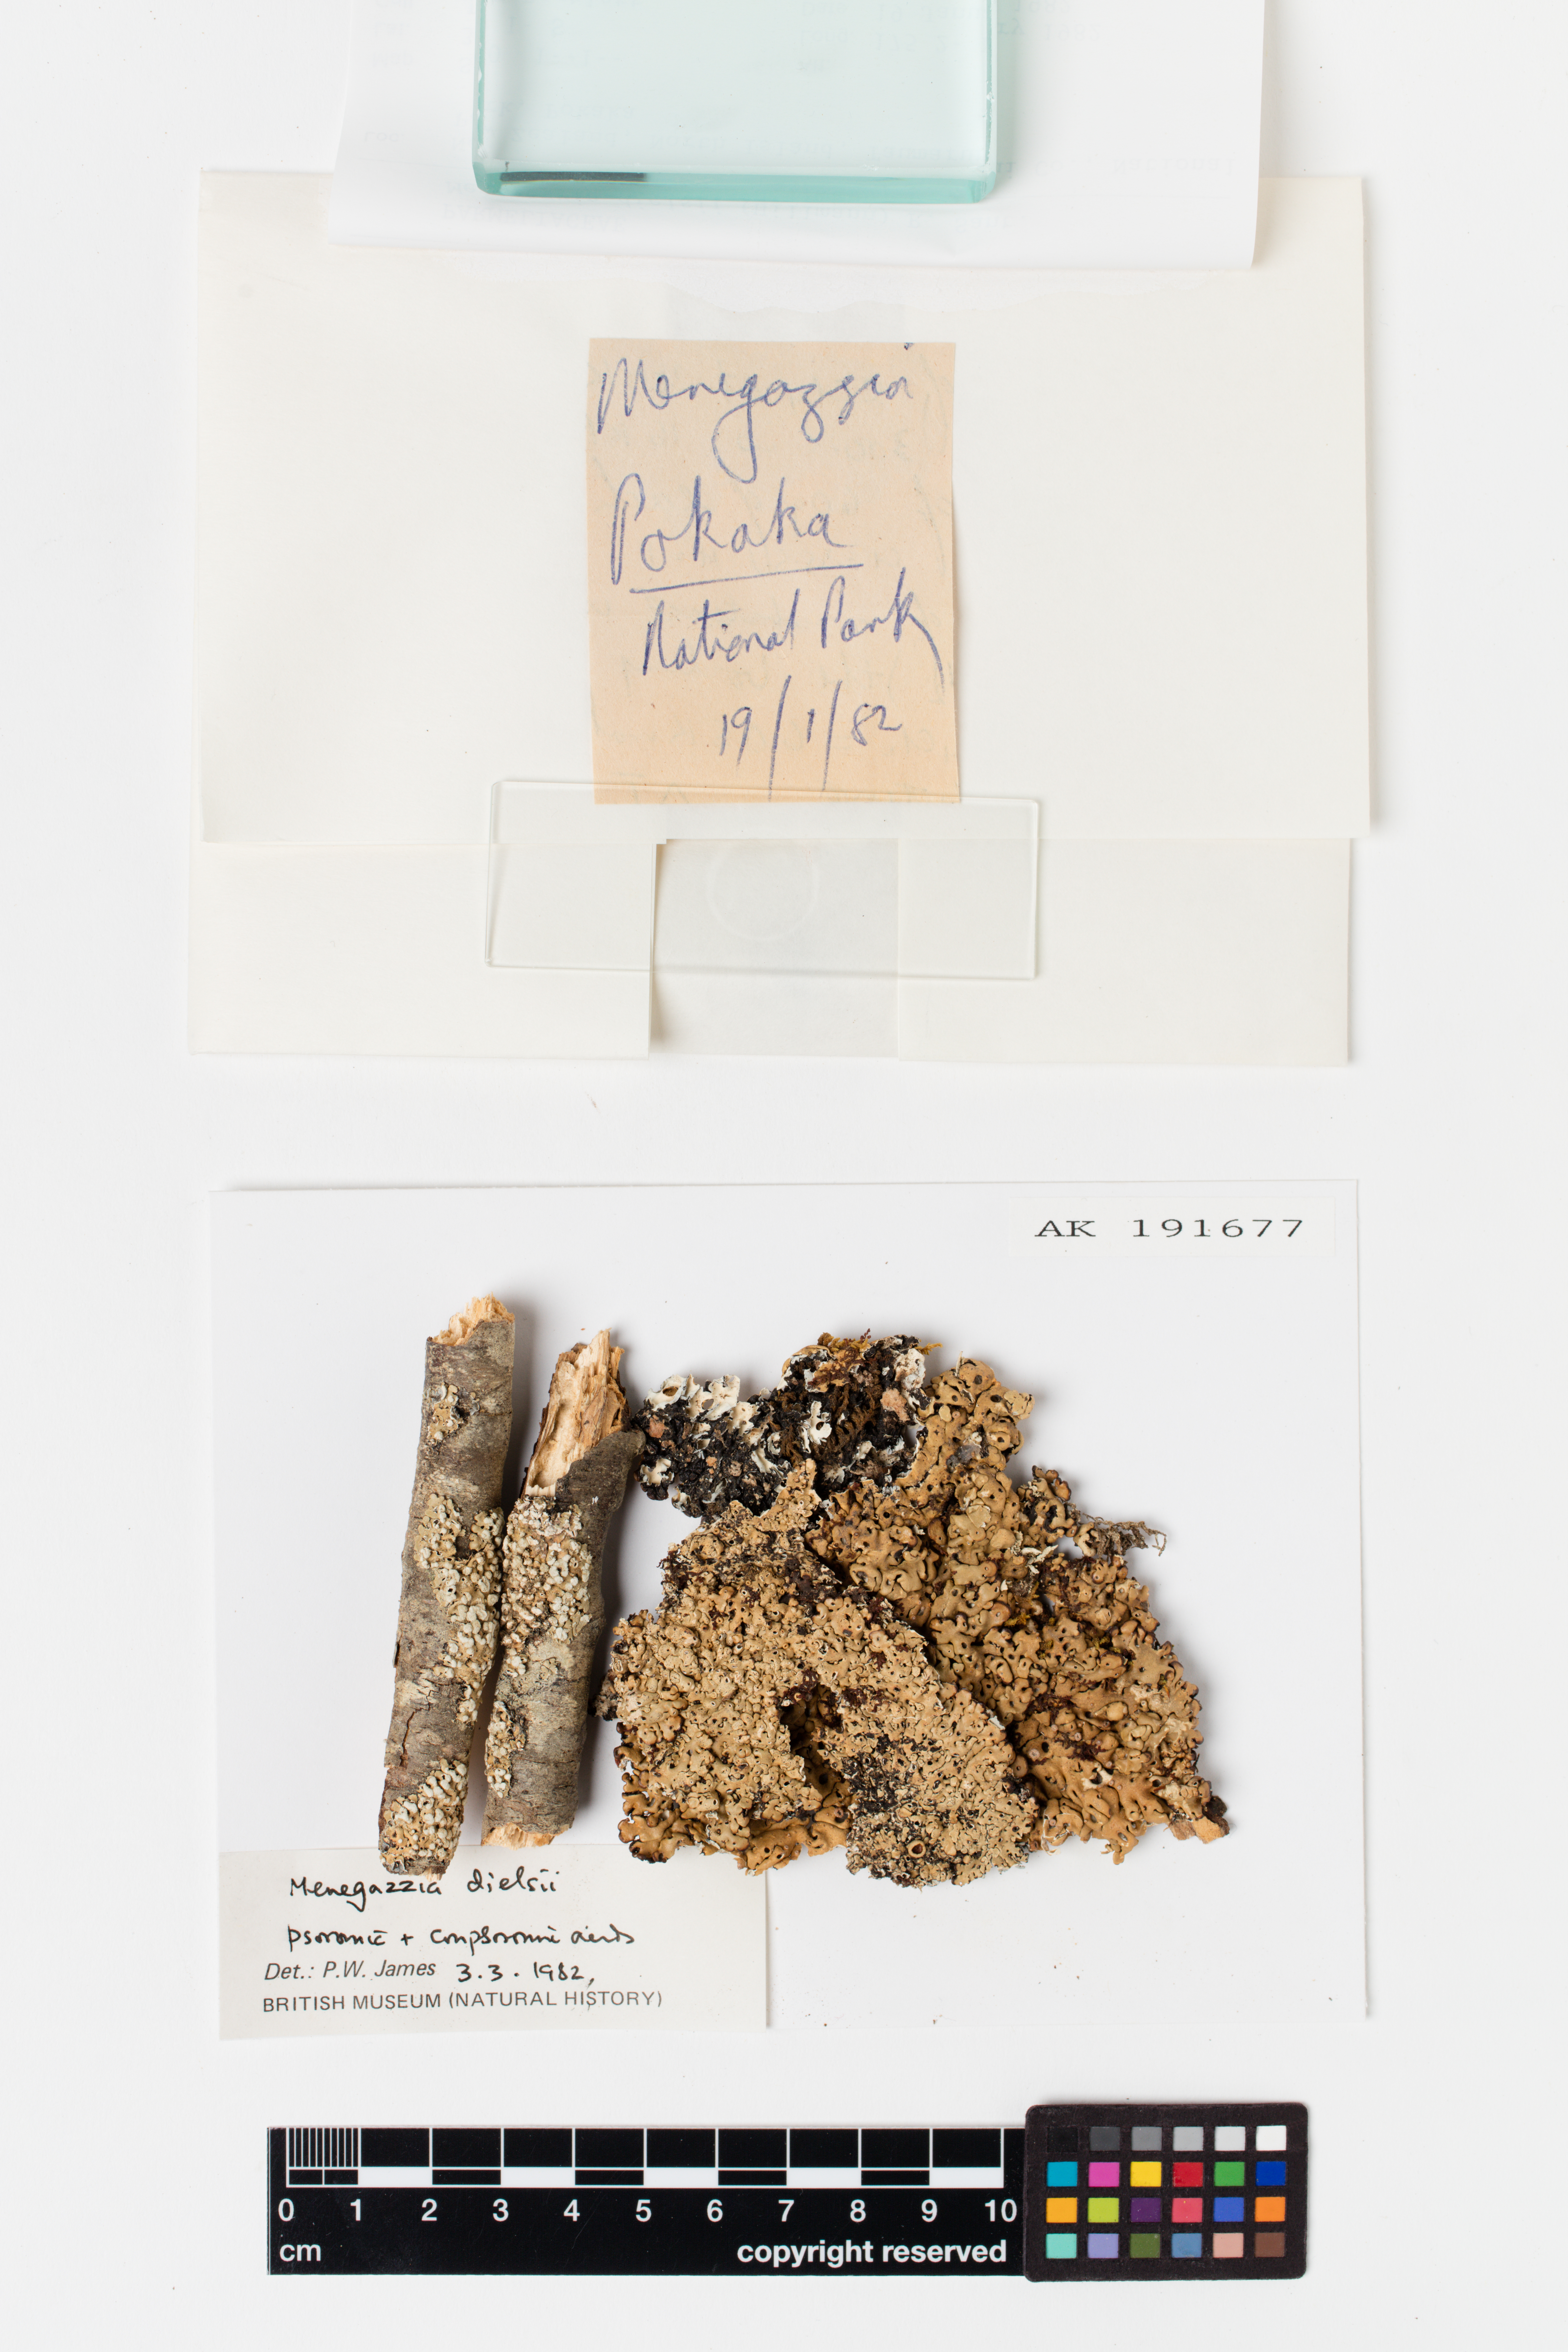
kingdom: Fungi
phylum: Ascomycota
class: Lecanoromycetes
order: Lecanorales
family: Parmeliaceae
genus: Menegazzia
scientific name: Menegazzia dielsii
